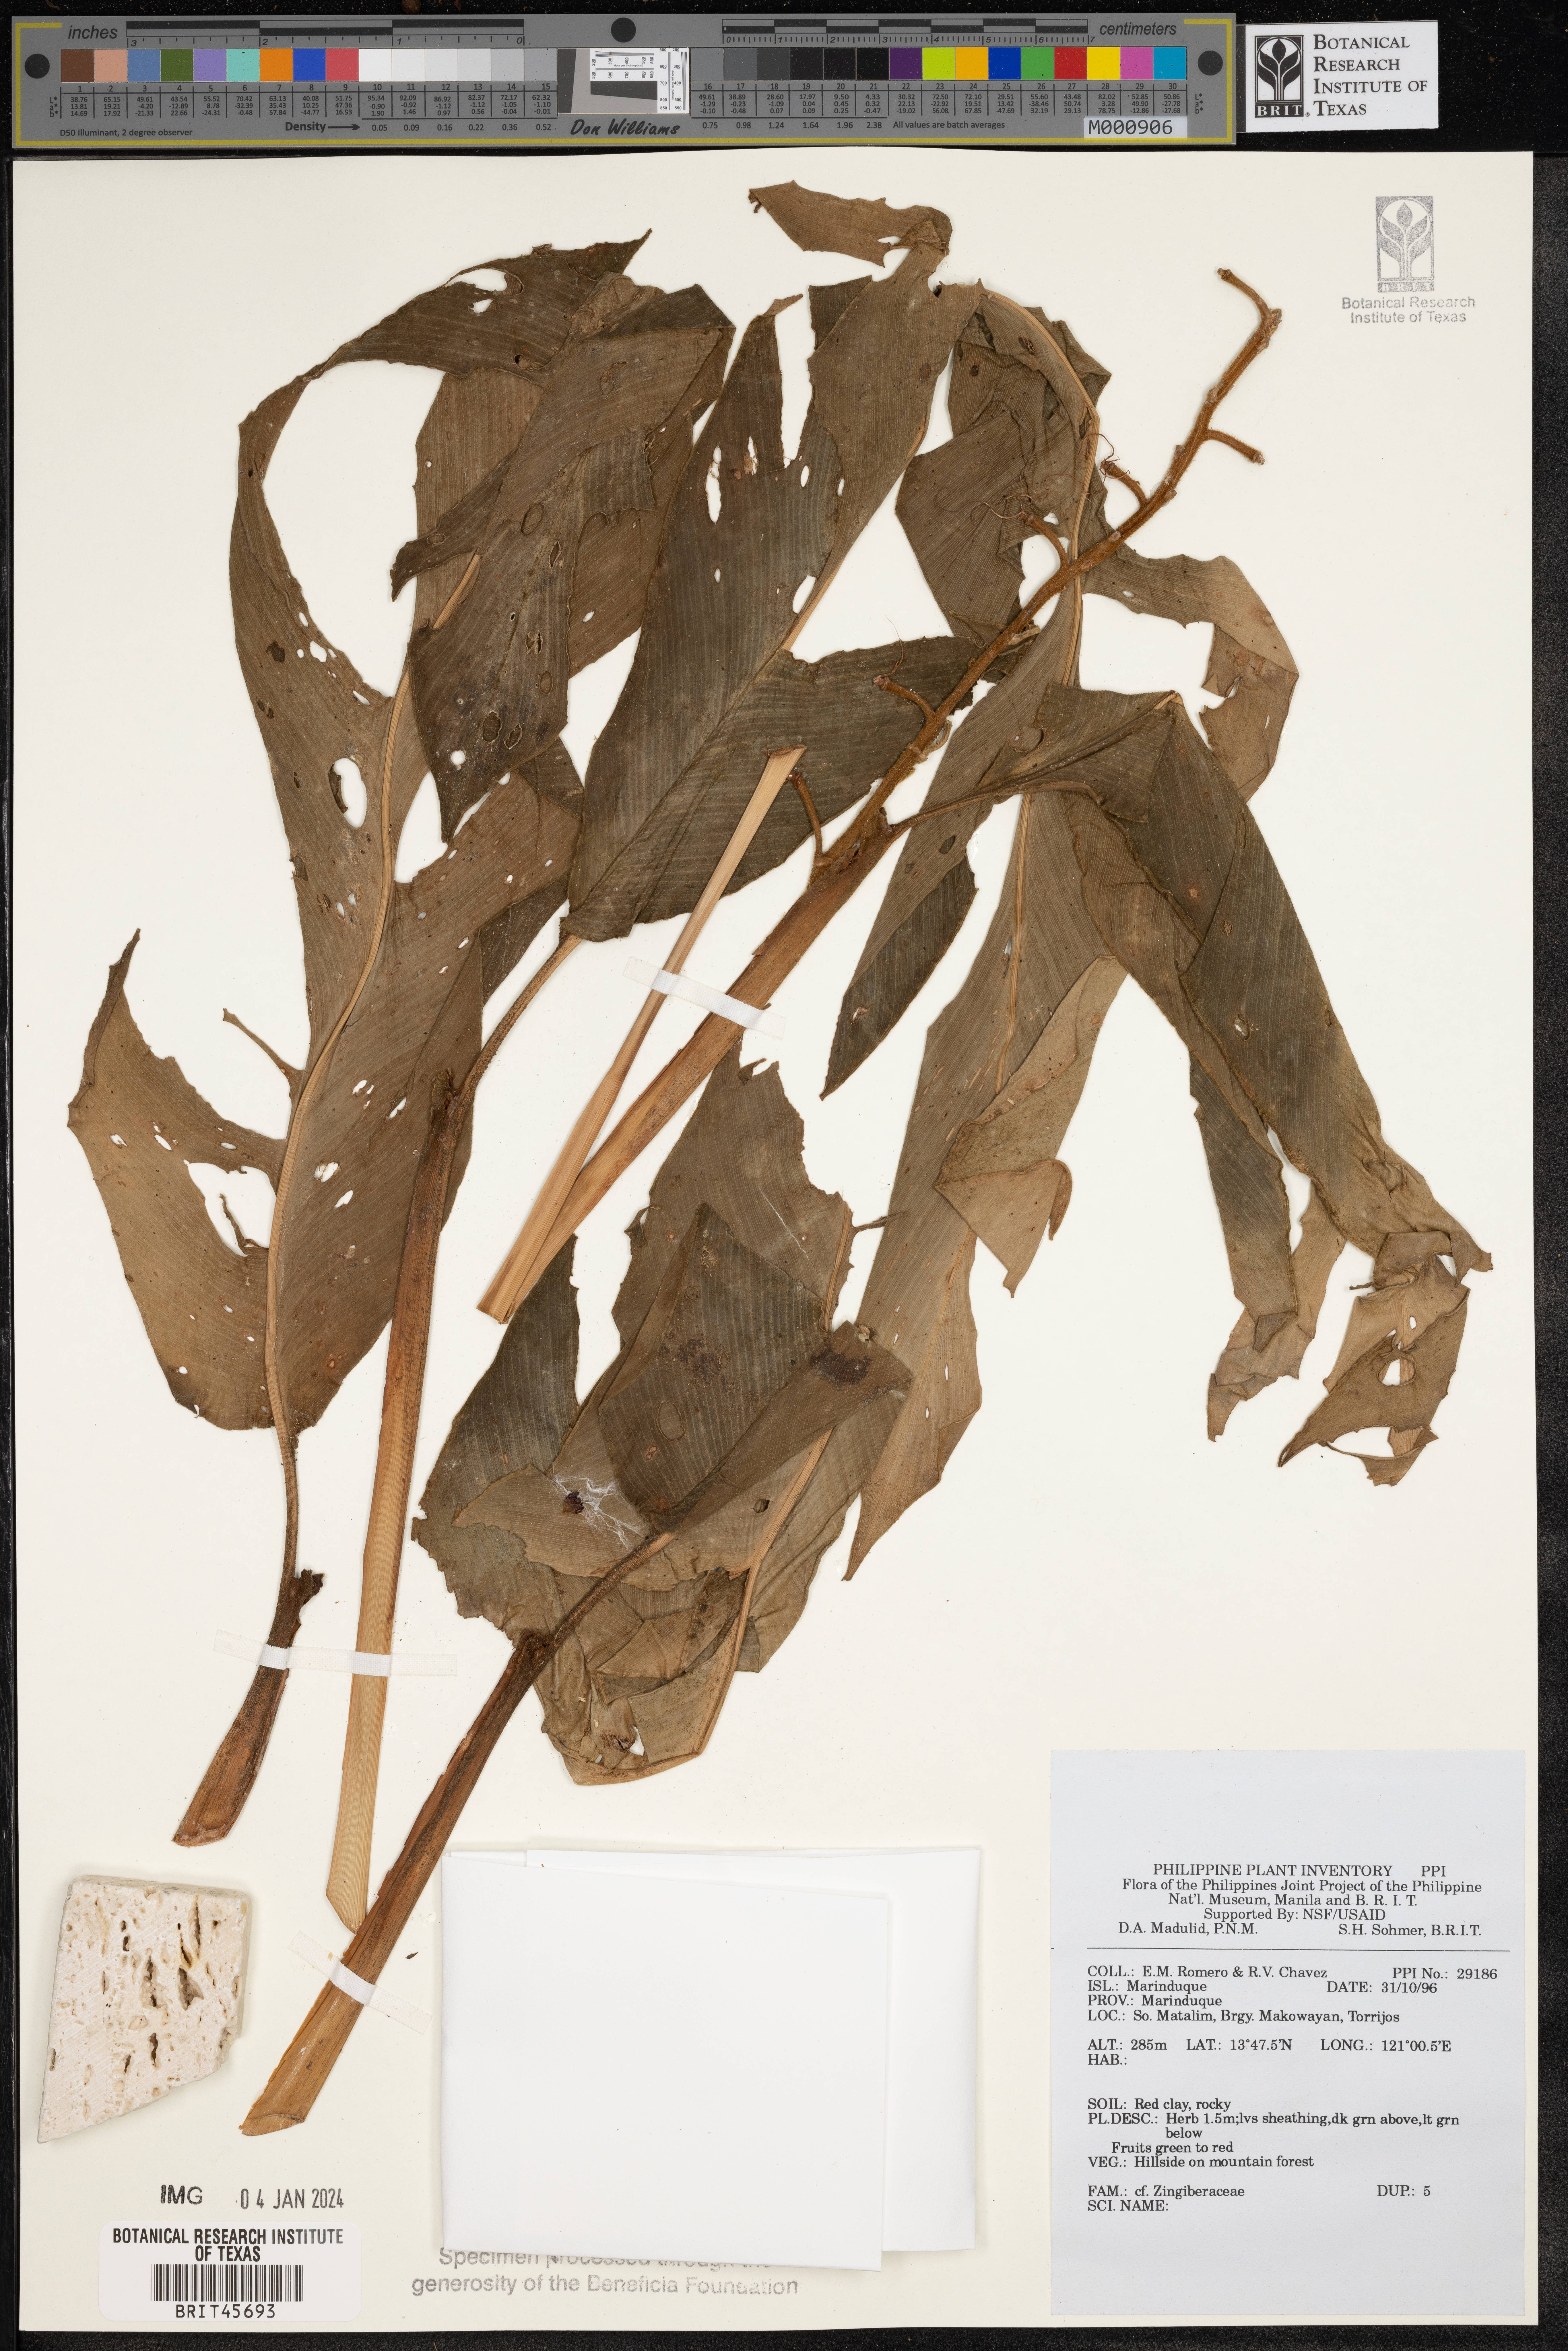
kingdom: Plantae
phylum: Tracheophyta
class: Liliopsida
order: Zingiberales
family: Zingiberaceae
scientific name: Zingiberaceae
